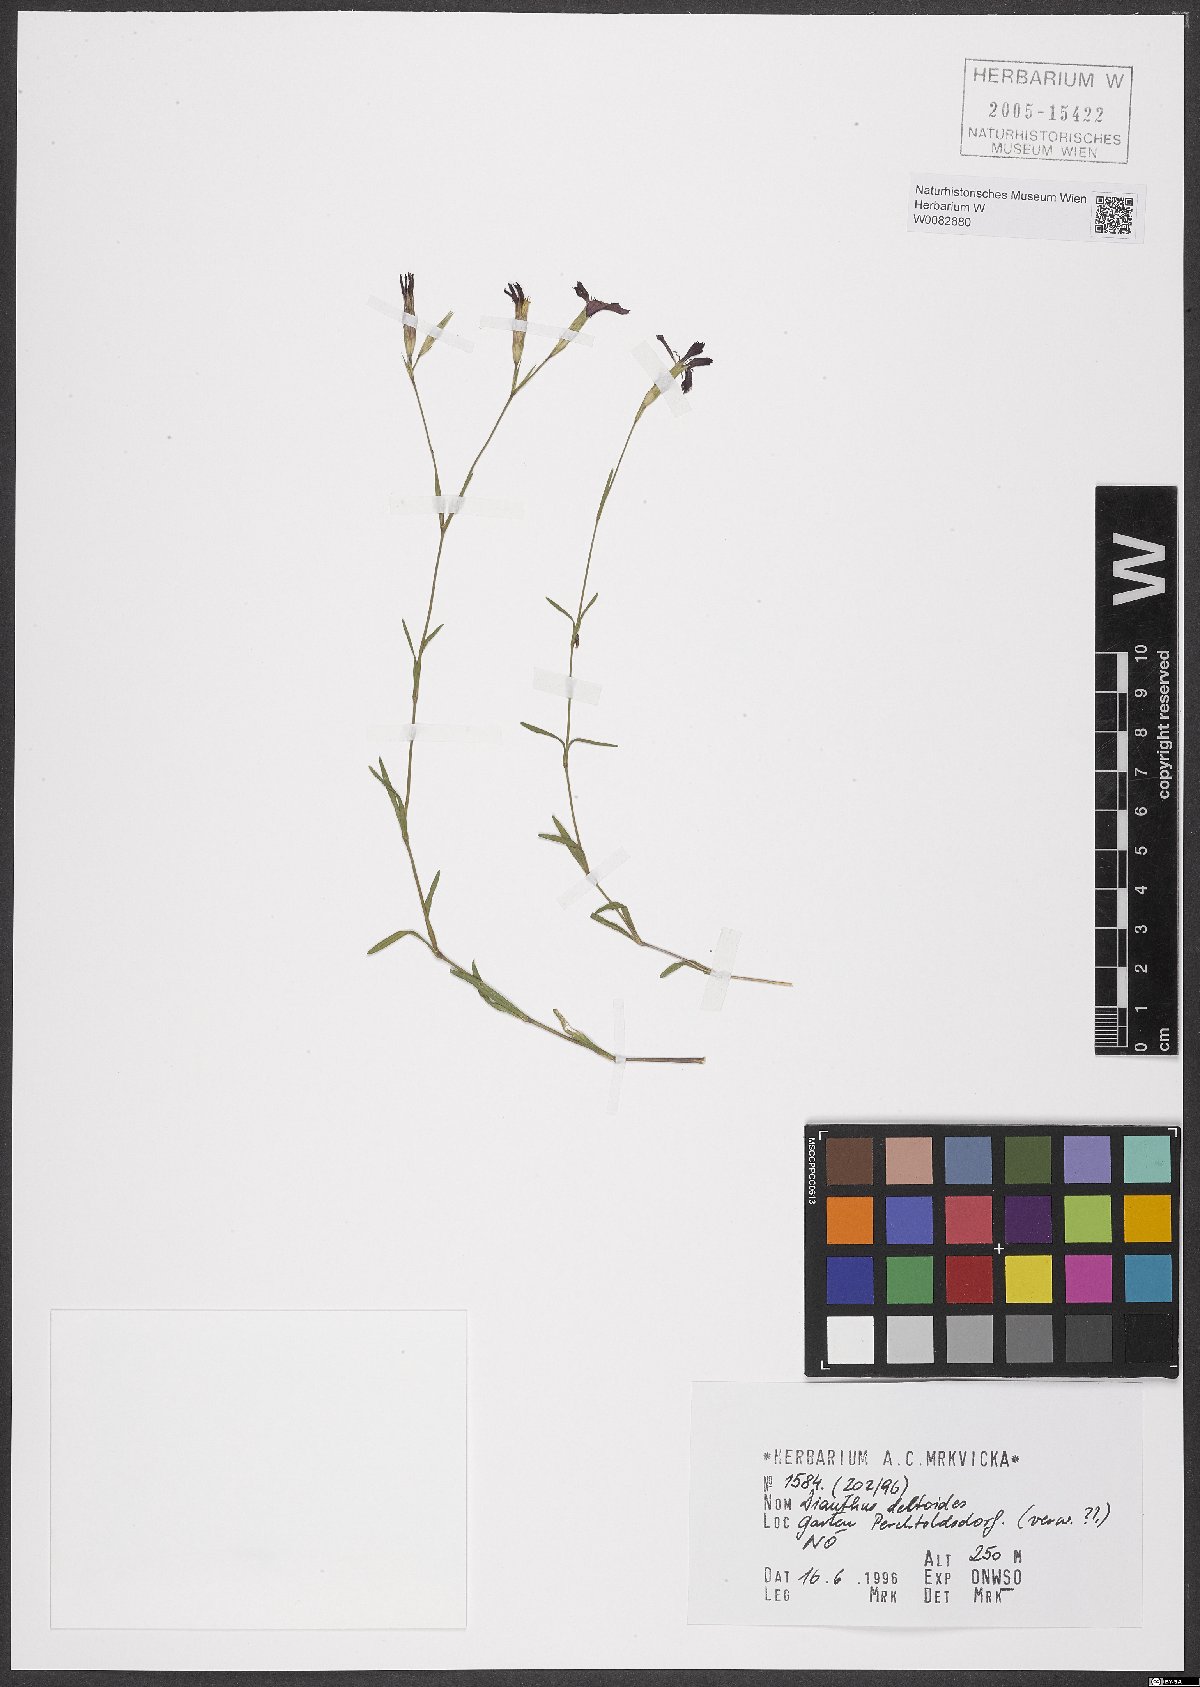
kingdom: Plantae
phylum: Tracheophyta
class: Magnoliopsida
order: Caryophyllales
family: Caryophyllaceae
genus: Dianthus
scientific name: Dianthus deltoides
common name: Maiden pink
